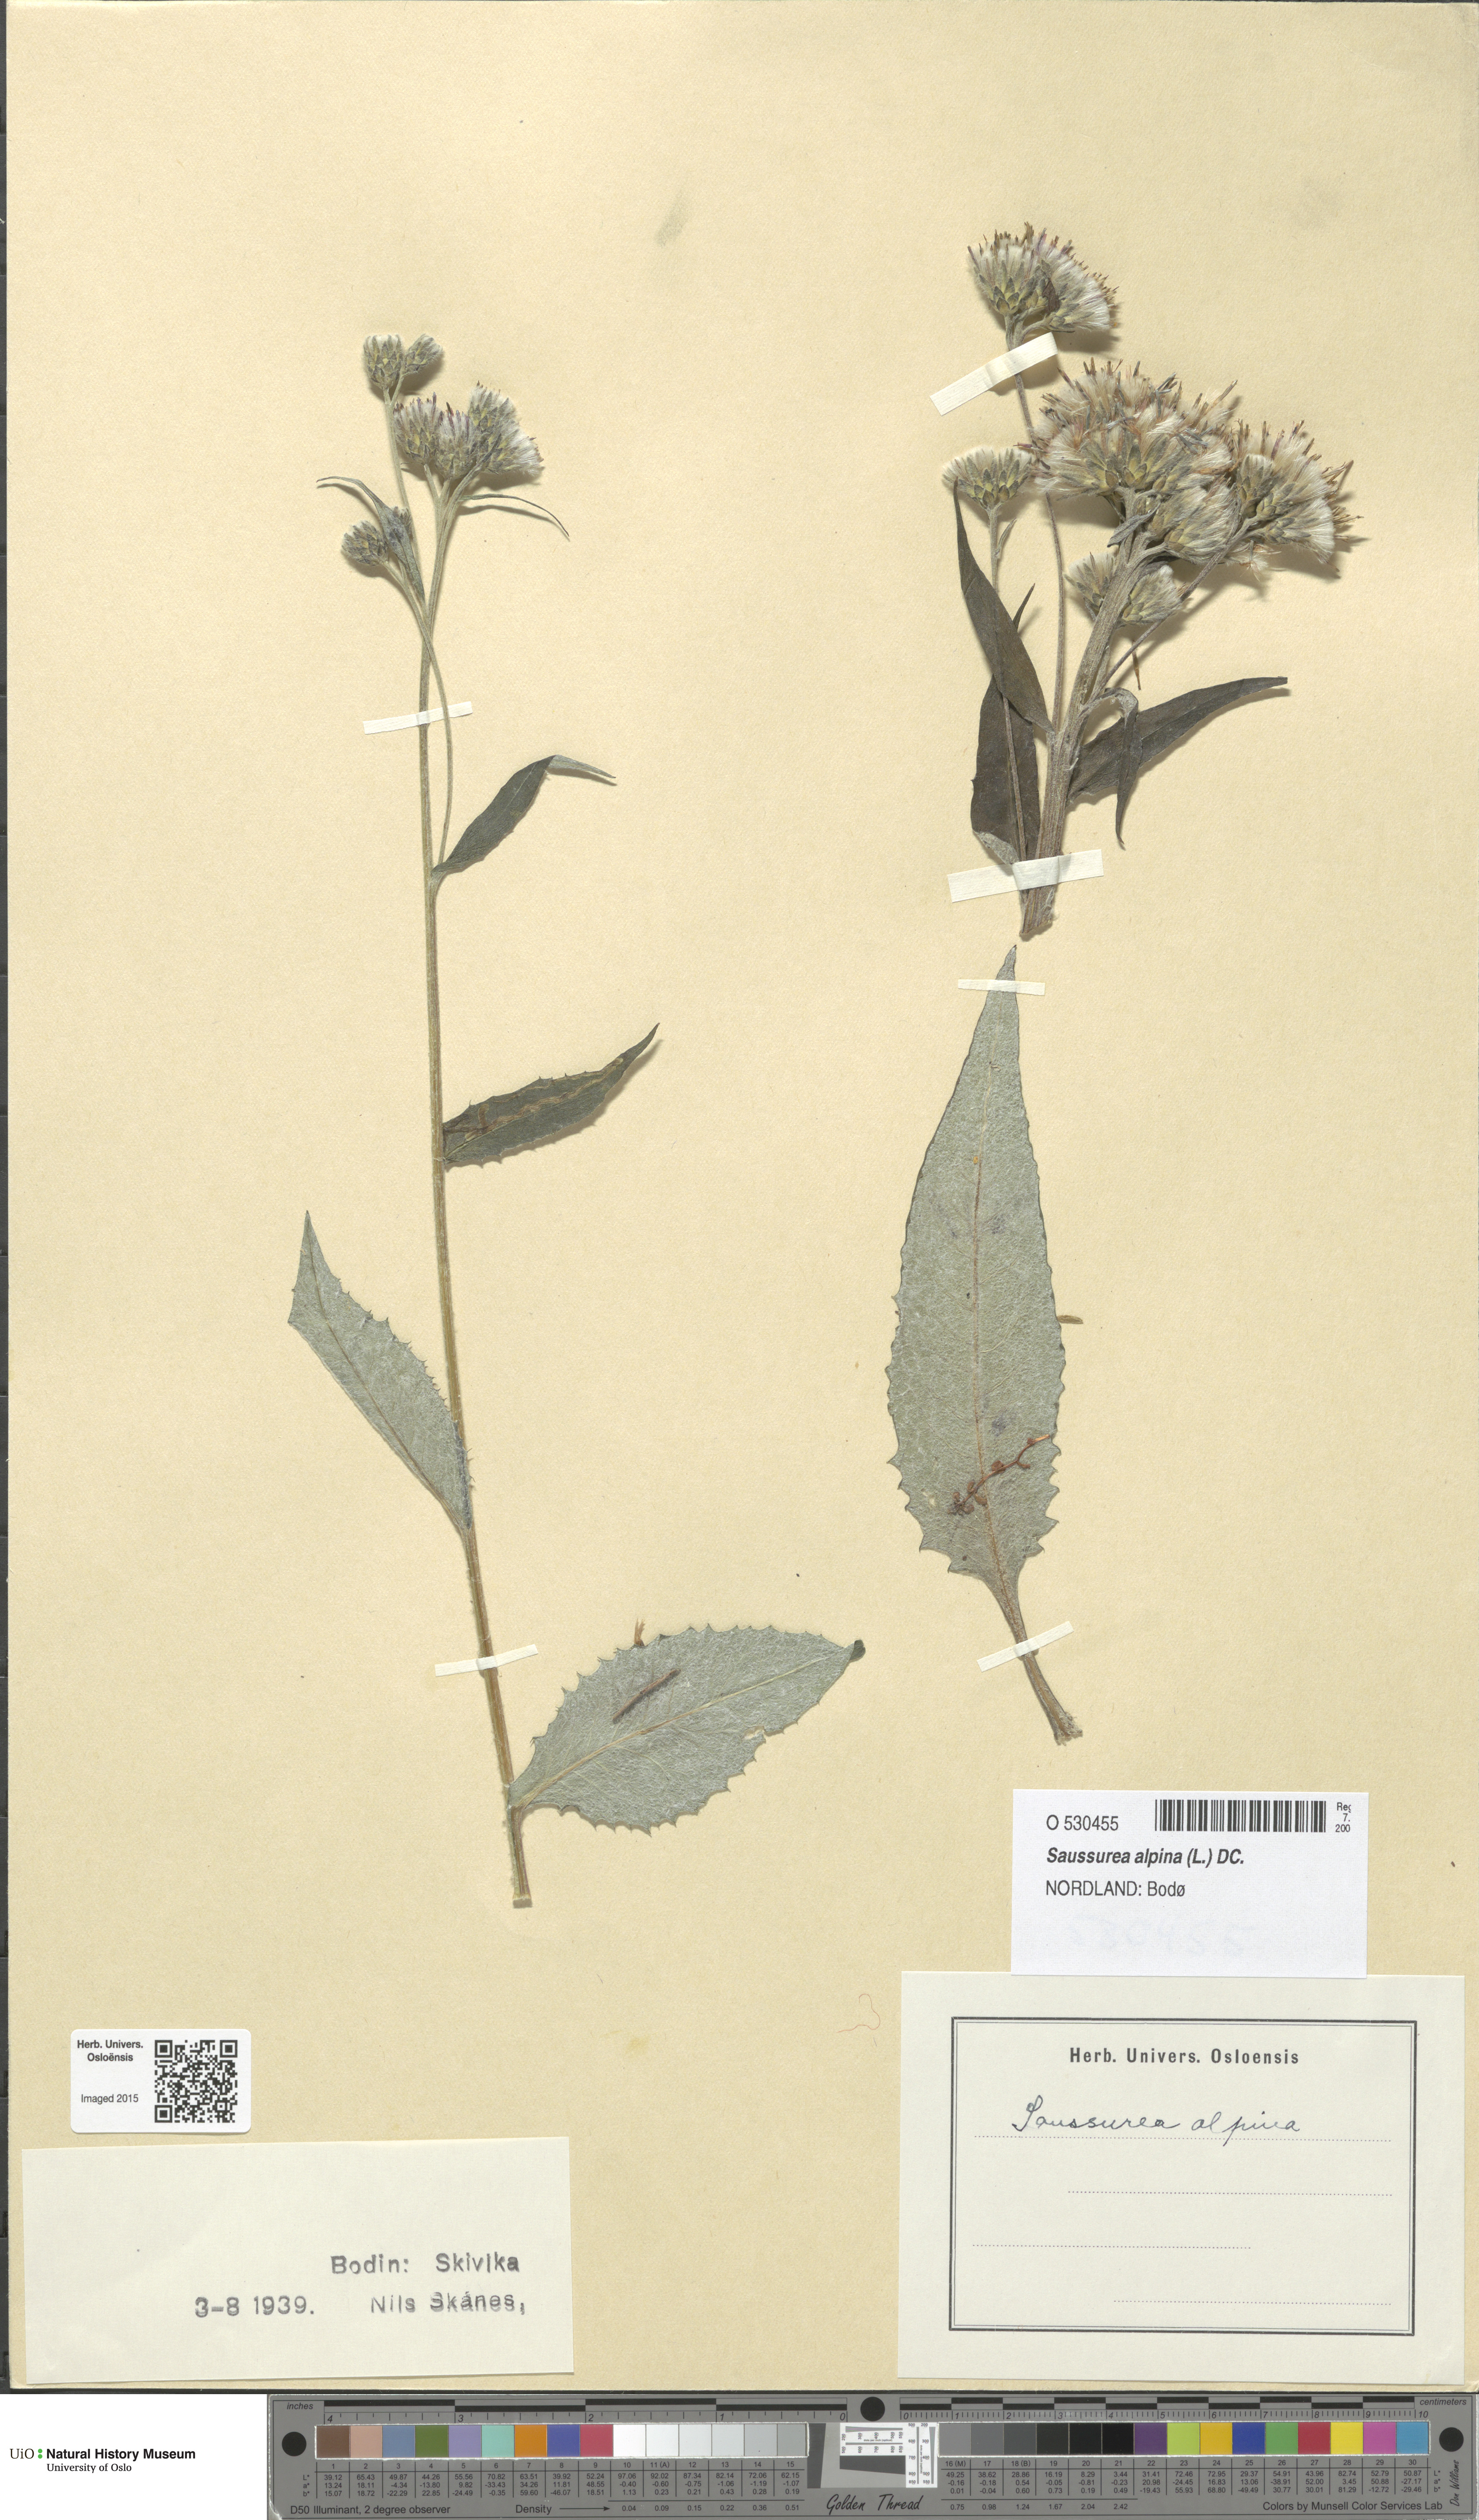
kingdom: Plantae
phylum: Tracheophyta
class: Magnoliopsida
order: Asterales
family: Asteraceae
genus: Saussurea
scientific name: Saussurea alpina
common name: Alpine saw-wort
